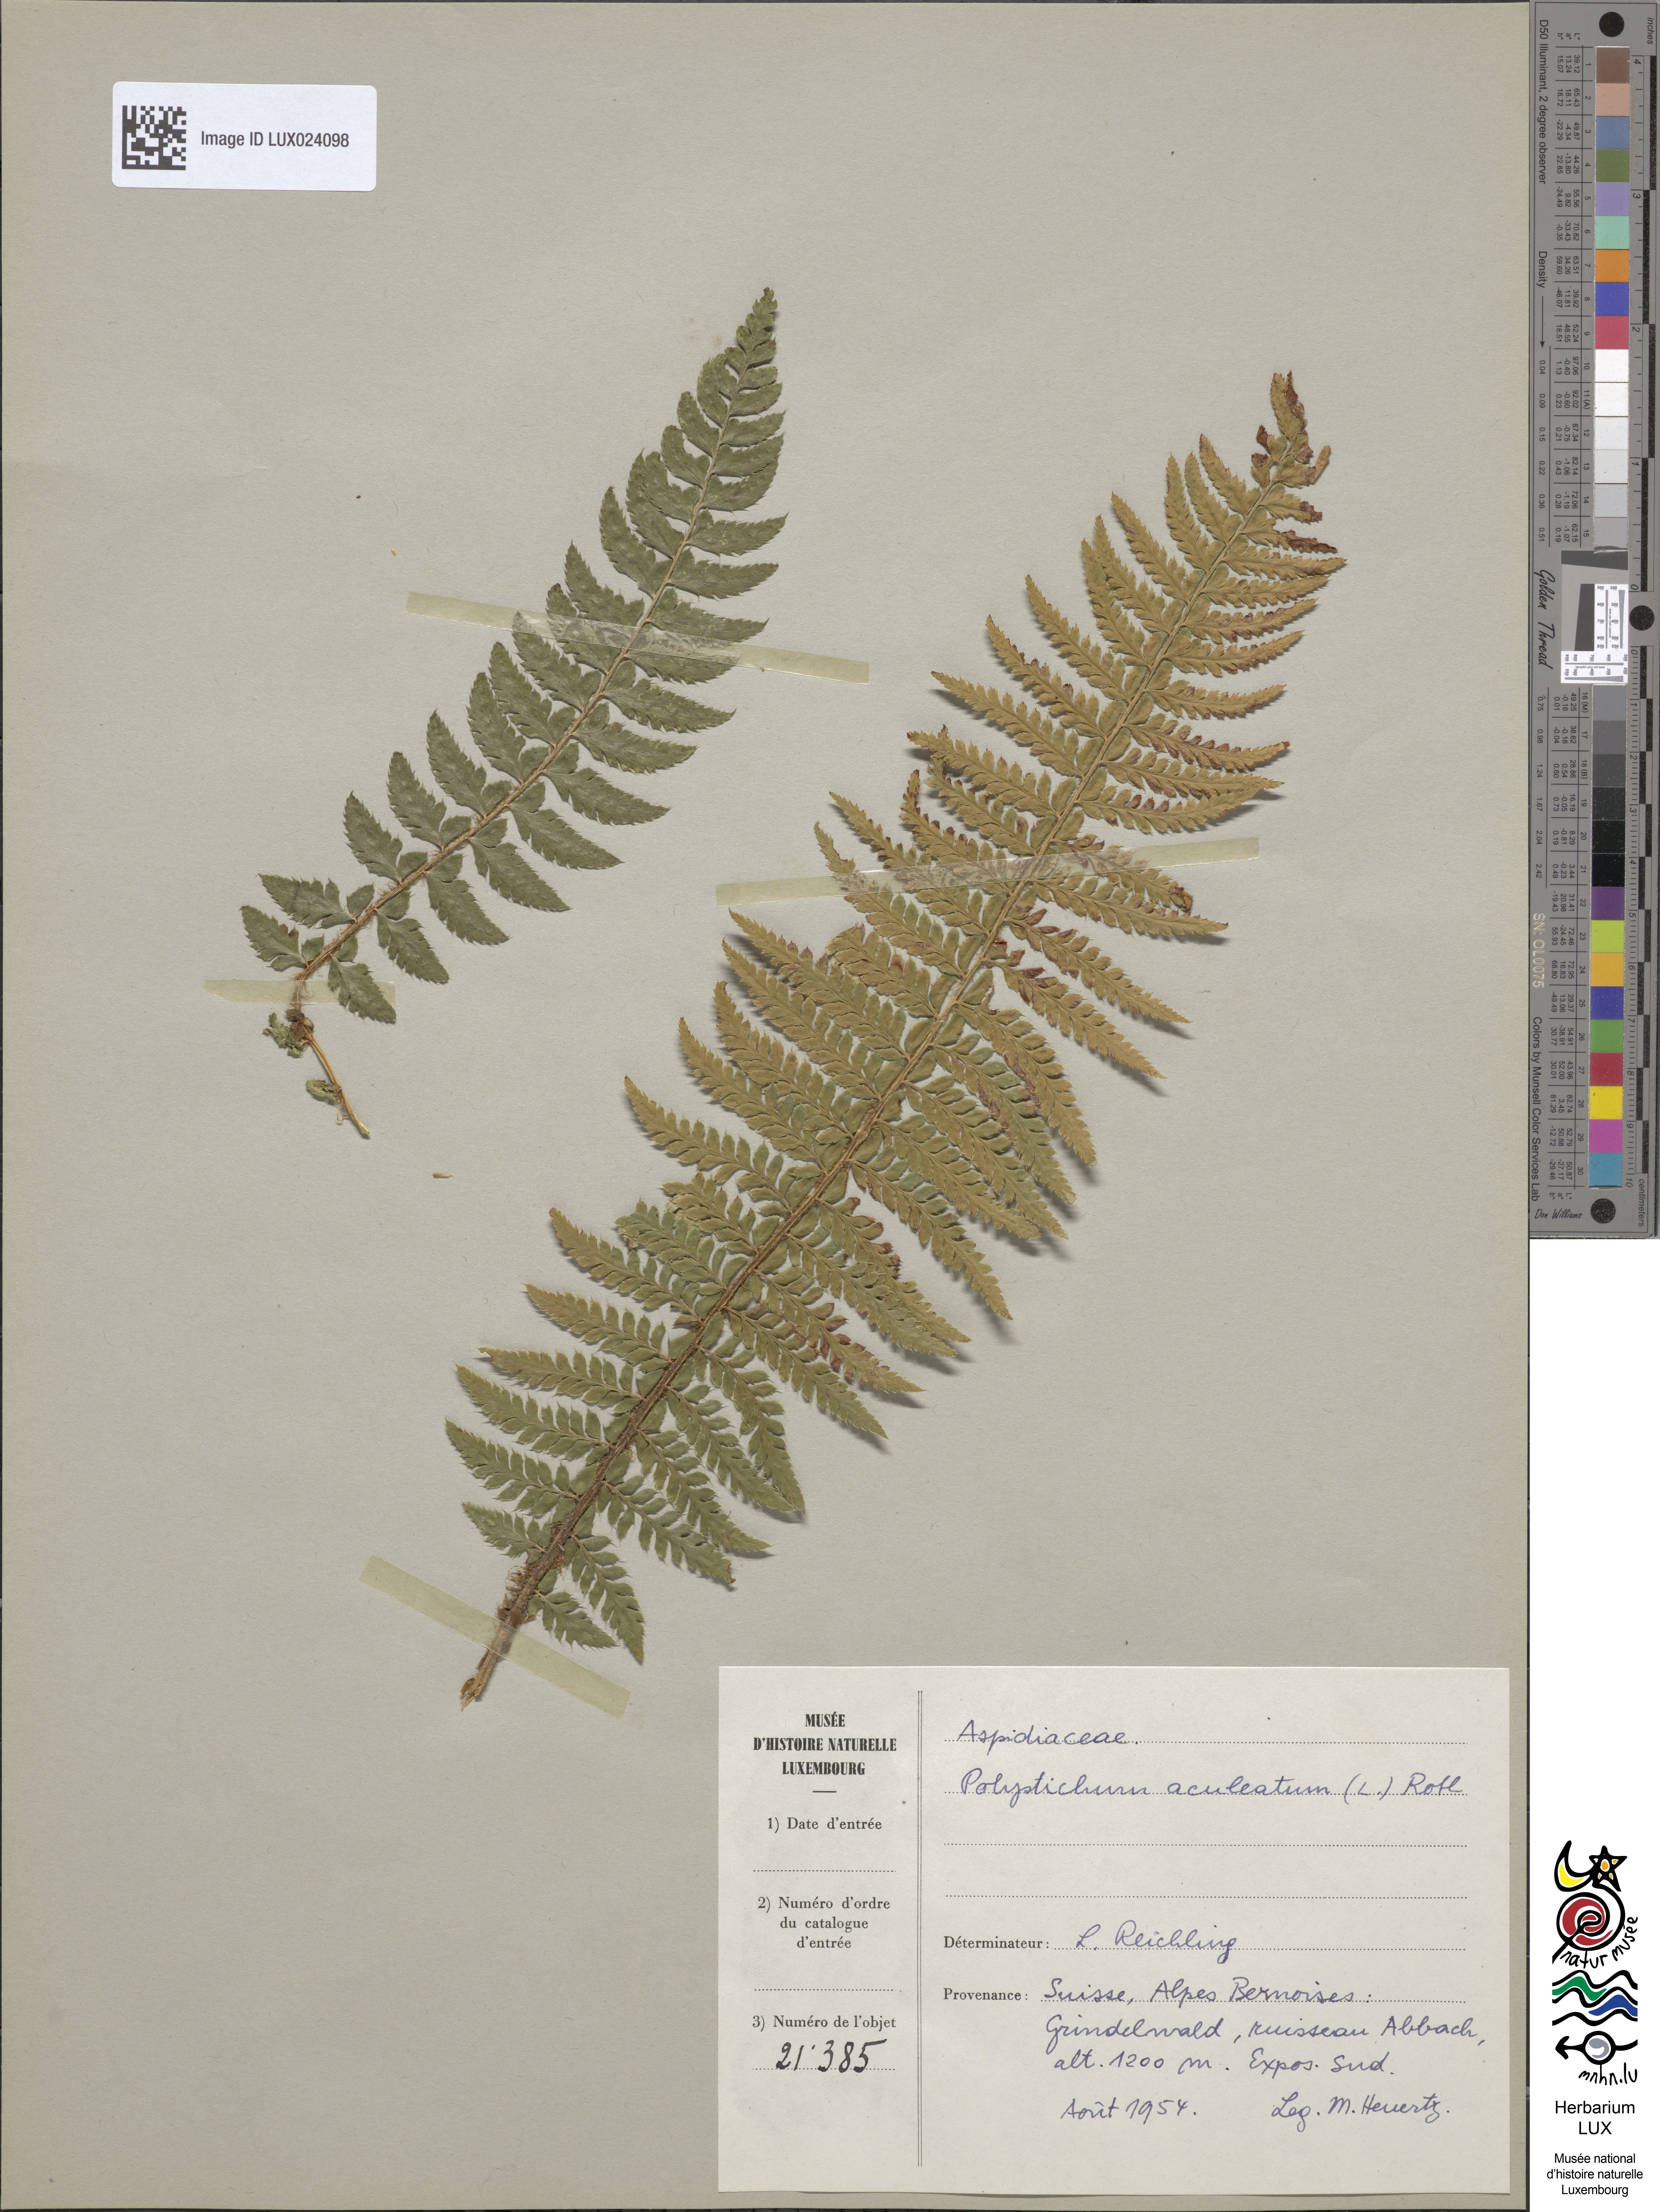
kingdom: Plantae
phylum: Tracheophyta
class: Polypodiopsida
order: Polypodiales
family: Dryopteridaceae
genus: Polystichum
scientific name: Polystichum aculeatum
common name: Hard shield-fern
